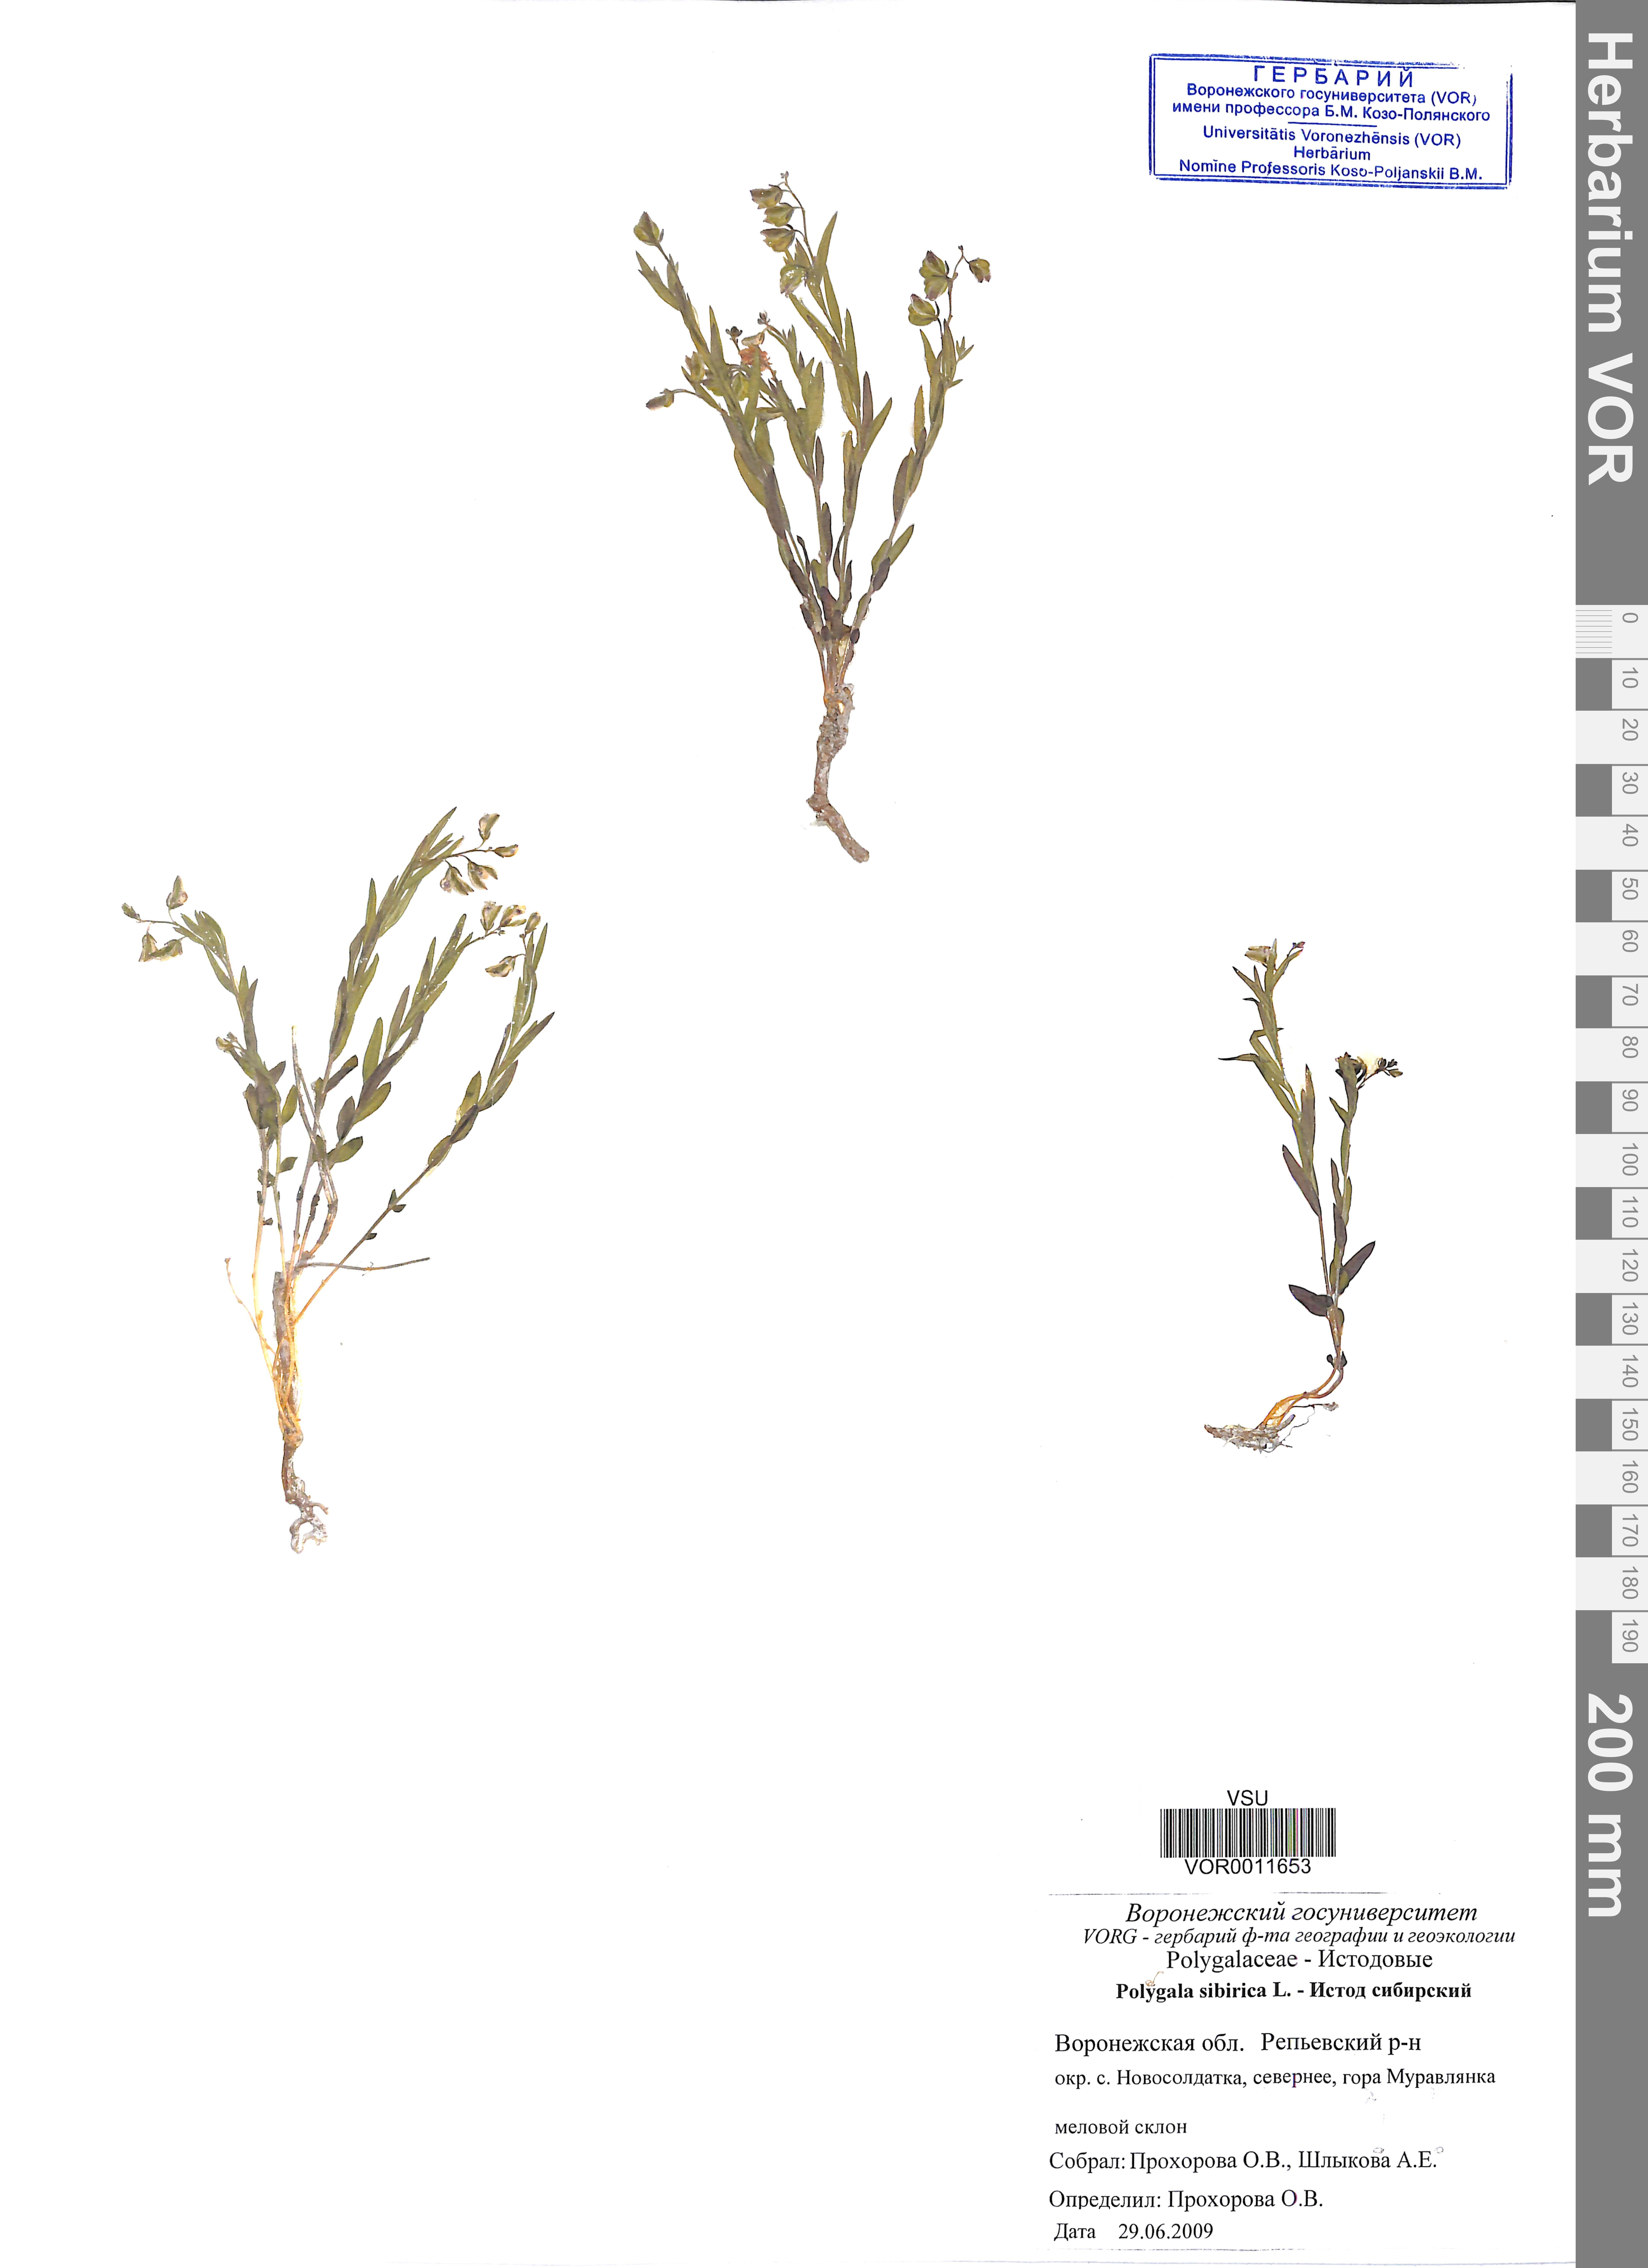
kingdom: Plantae
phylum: Tracheophyta
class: Magnoliopsida
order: Fabales
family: Polygalaceae
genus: Polygala
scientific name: Polygala sibirica
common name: Siberian polygala
